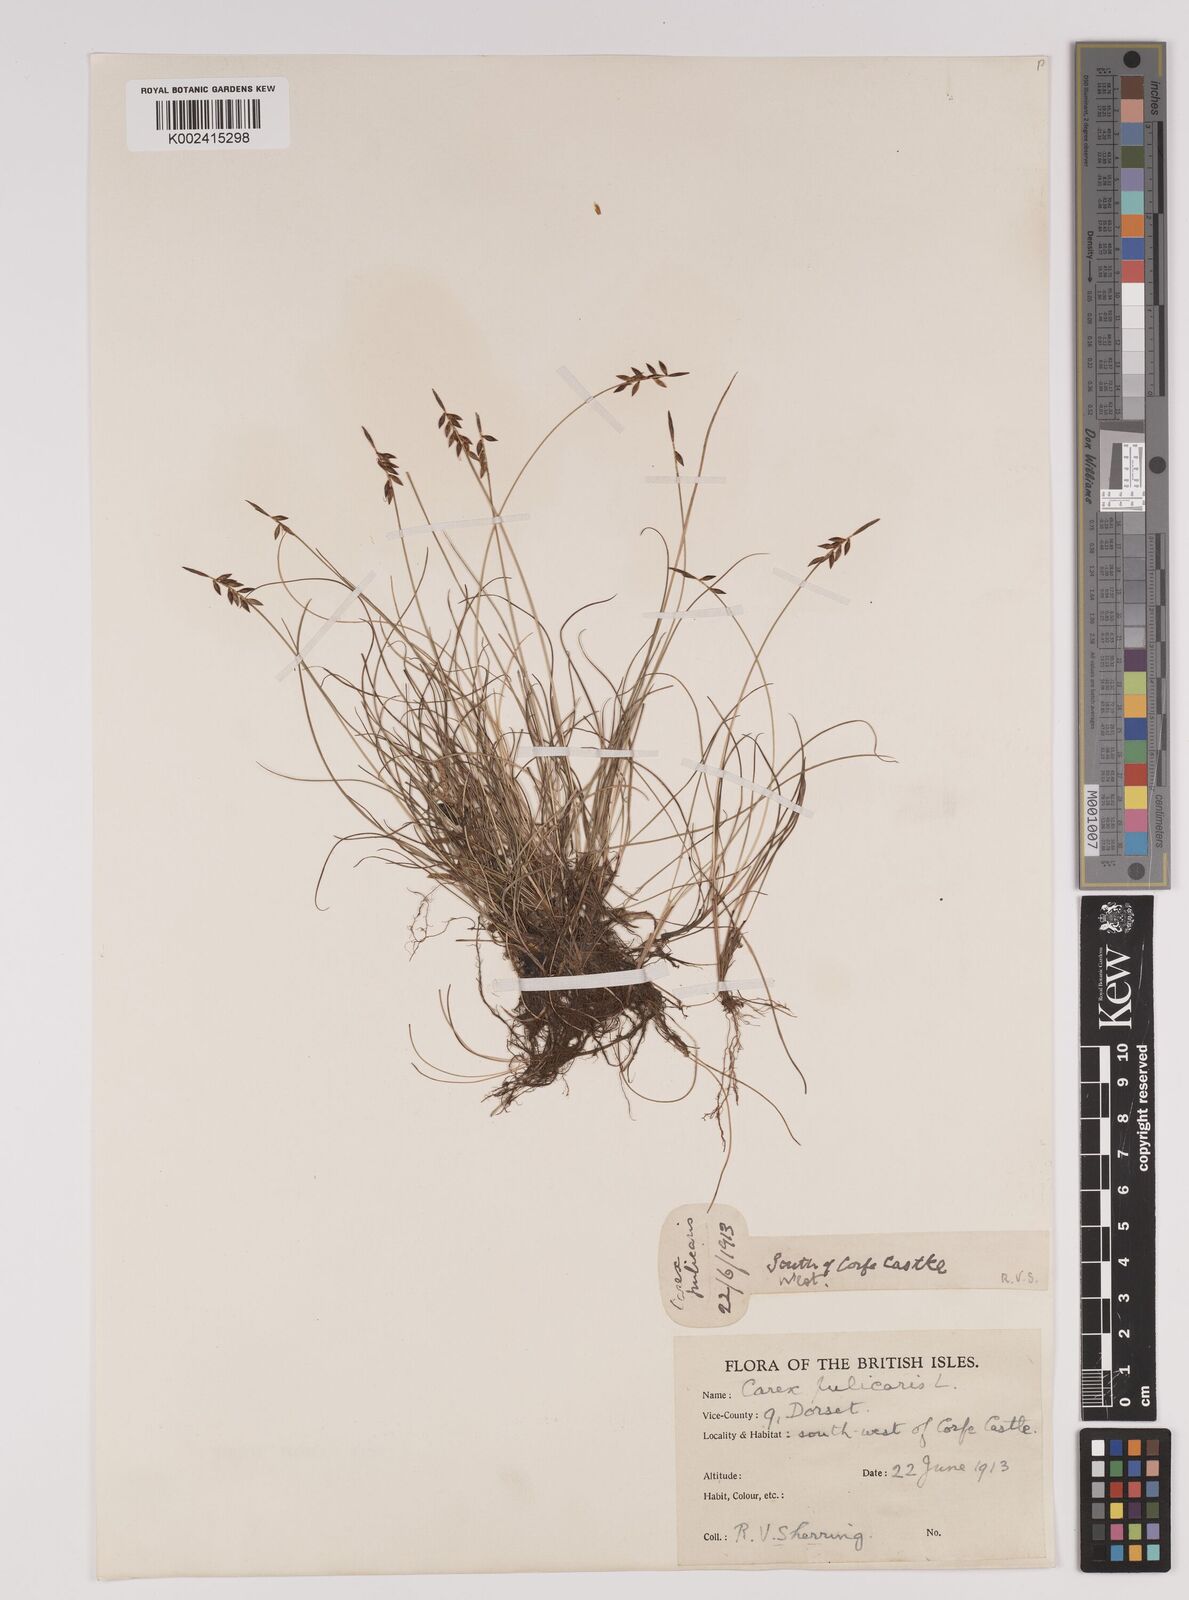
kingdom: Plantae
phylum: Tracheophyta
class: Liliopsida
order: Poales
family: Cyperaceae
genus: Carex
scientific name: Carex pulicaris
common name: Flea sedge
